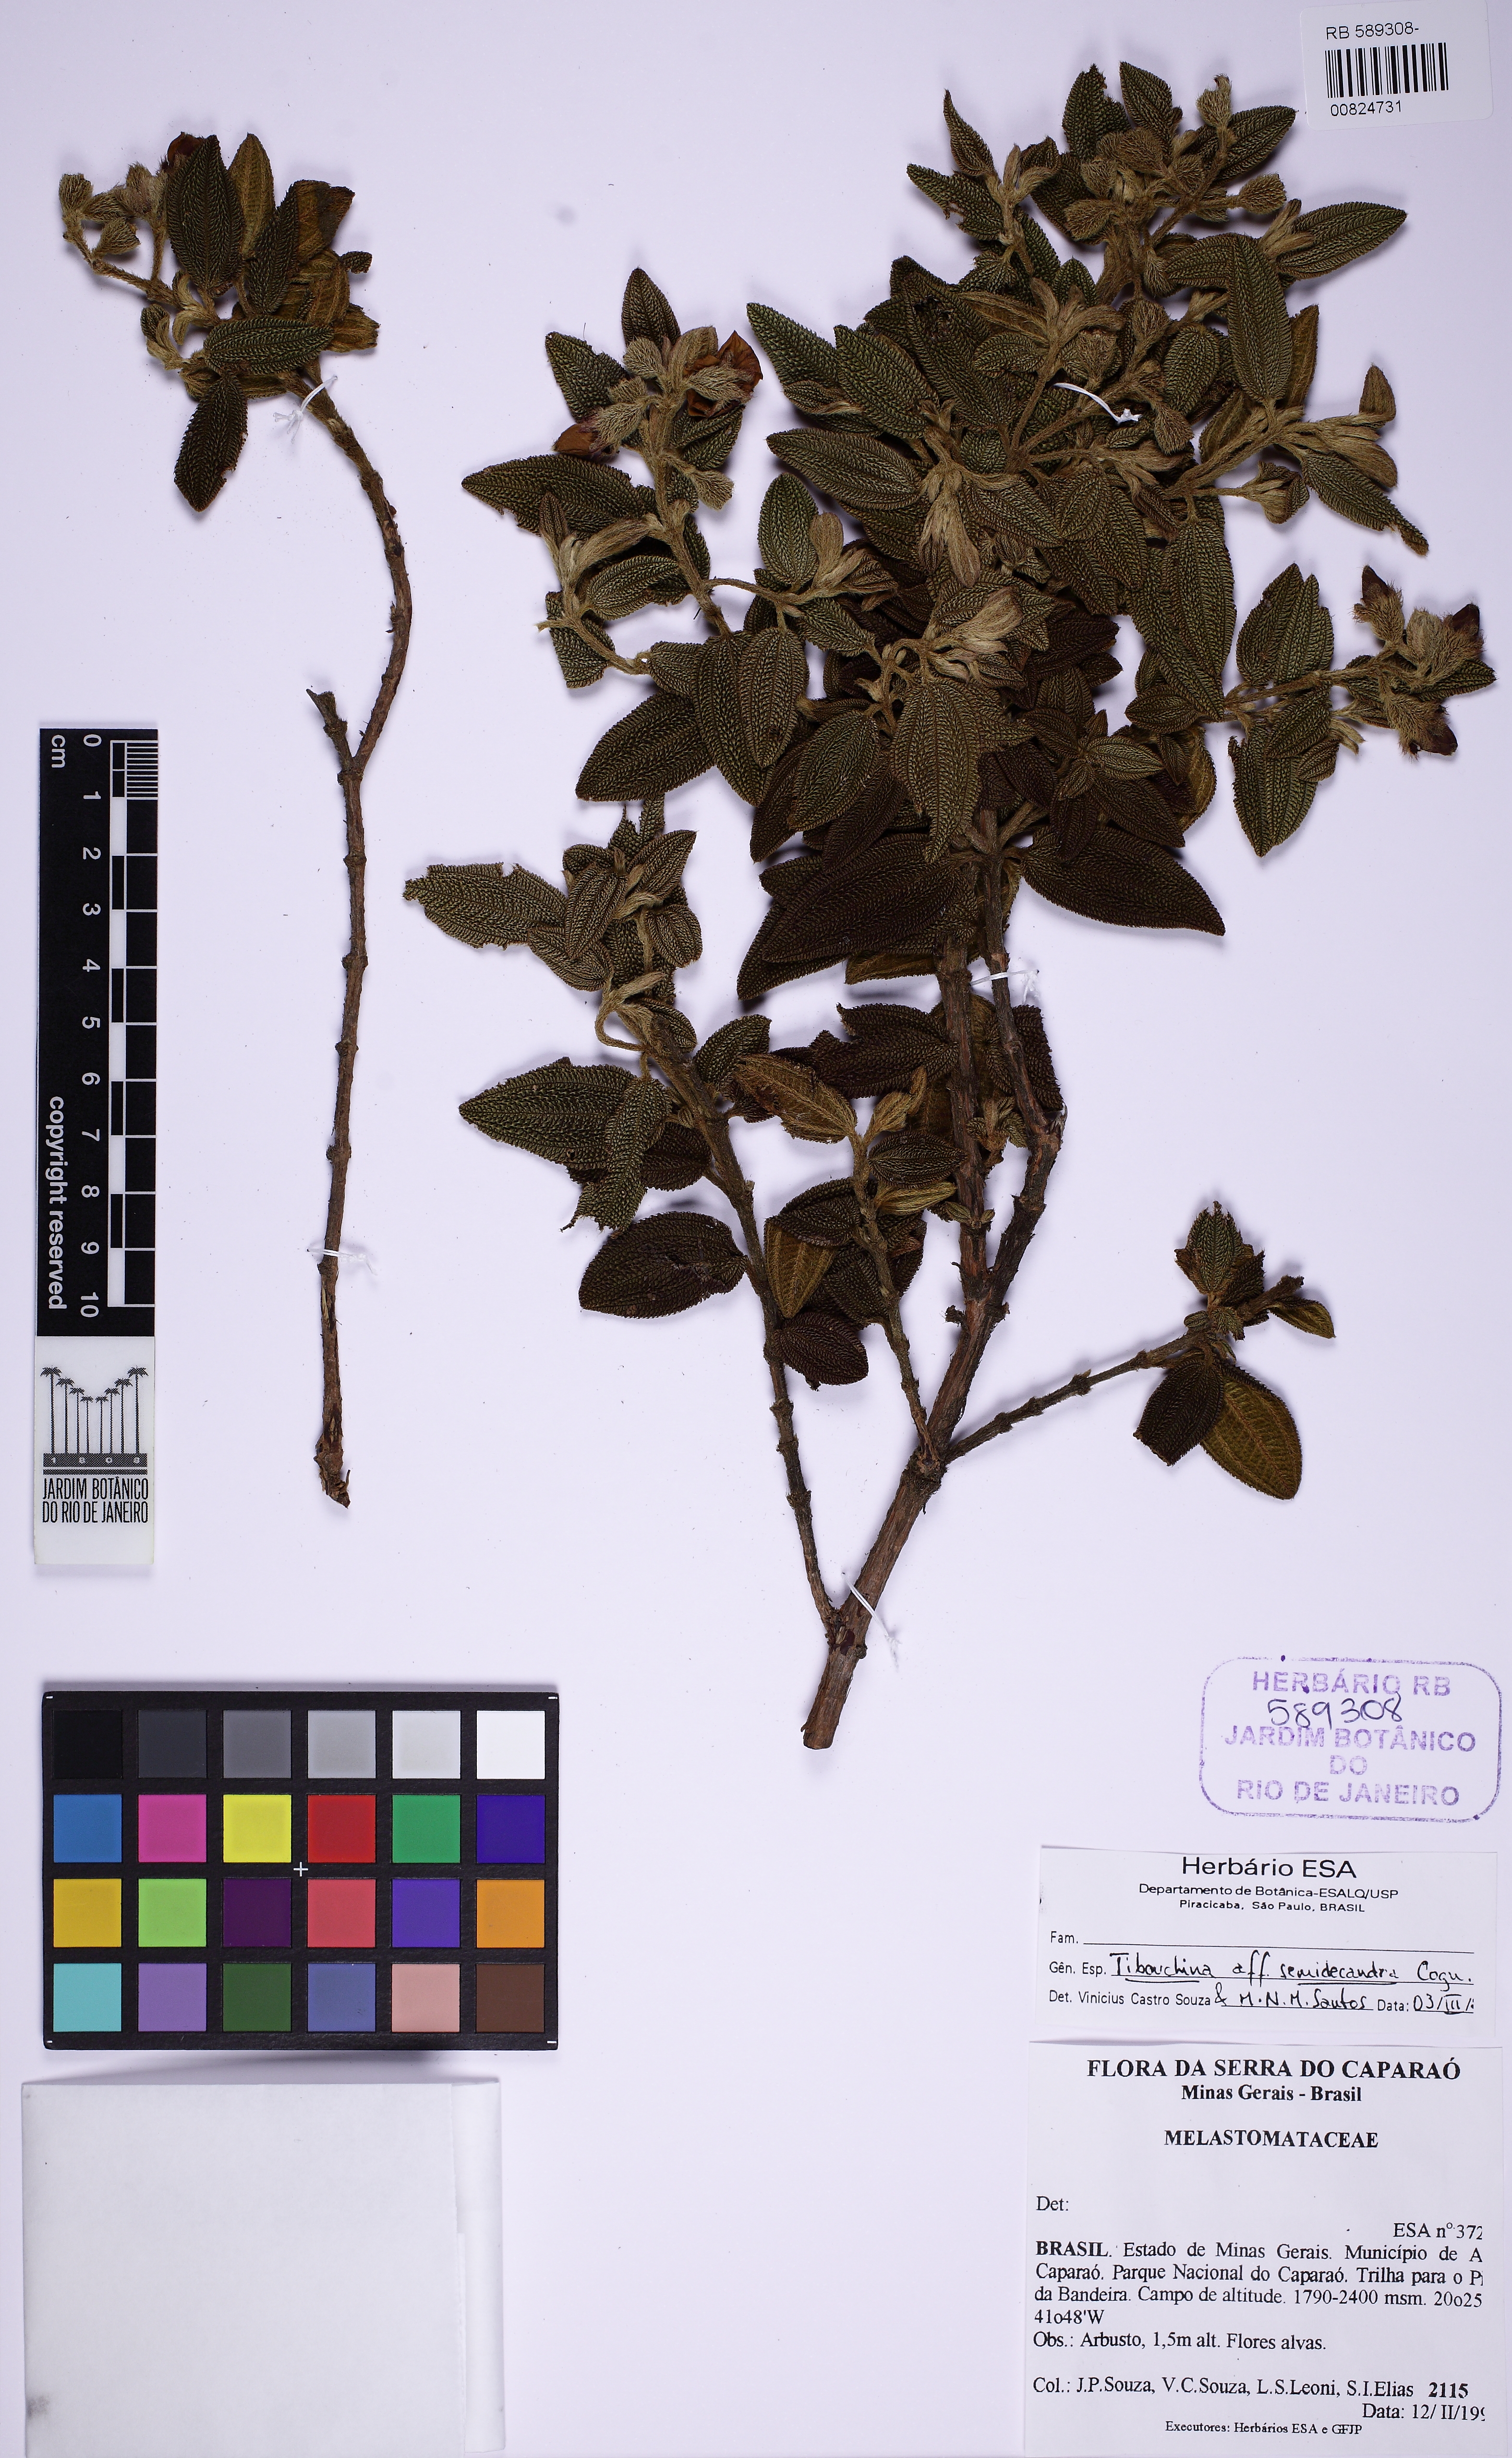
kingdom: Plantae
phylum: Tracheophyta
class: Magnoliopsida
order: Myrtales
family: Melastomataceae
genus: Pleroma
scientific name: Pleroma semidecandrum
